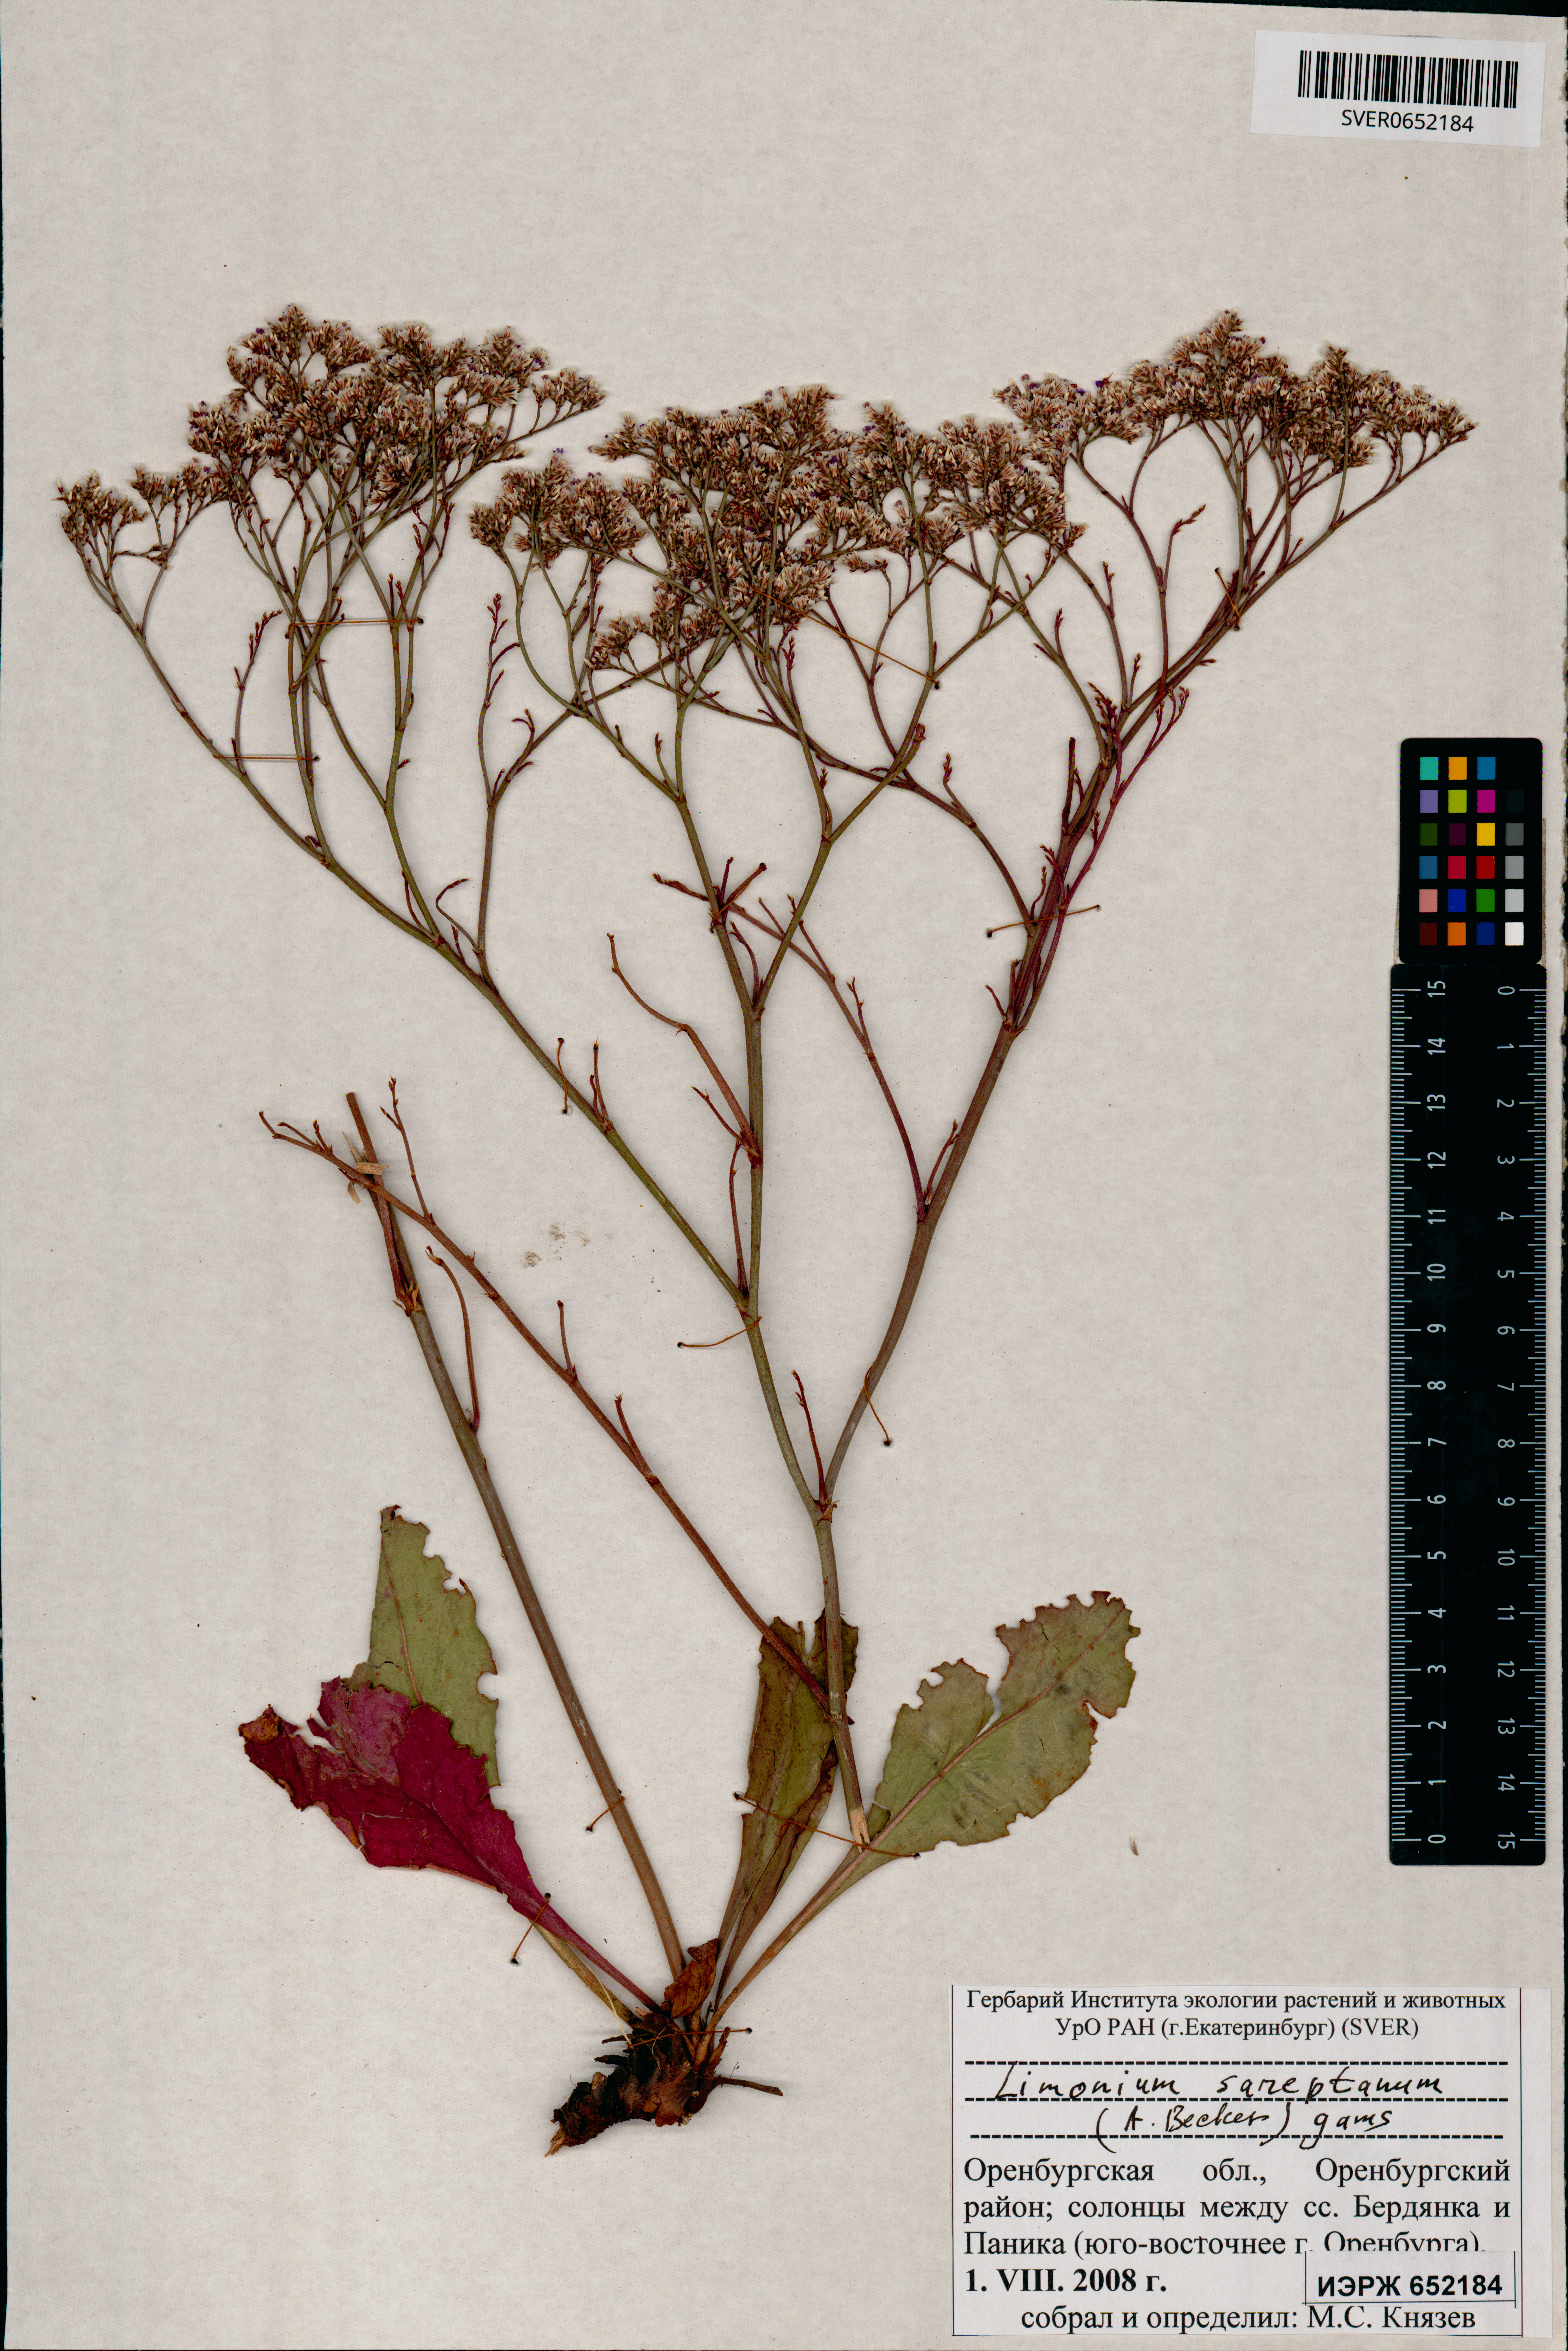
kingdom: Plantae
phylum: Tracheophyta
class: Magnoliopsida
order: Caryophyllales
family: Plumbaginaceae
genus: Limonium
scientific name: Limonium sareptanum
